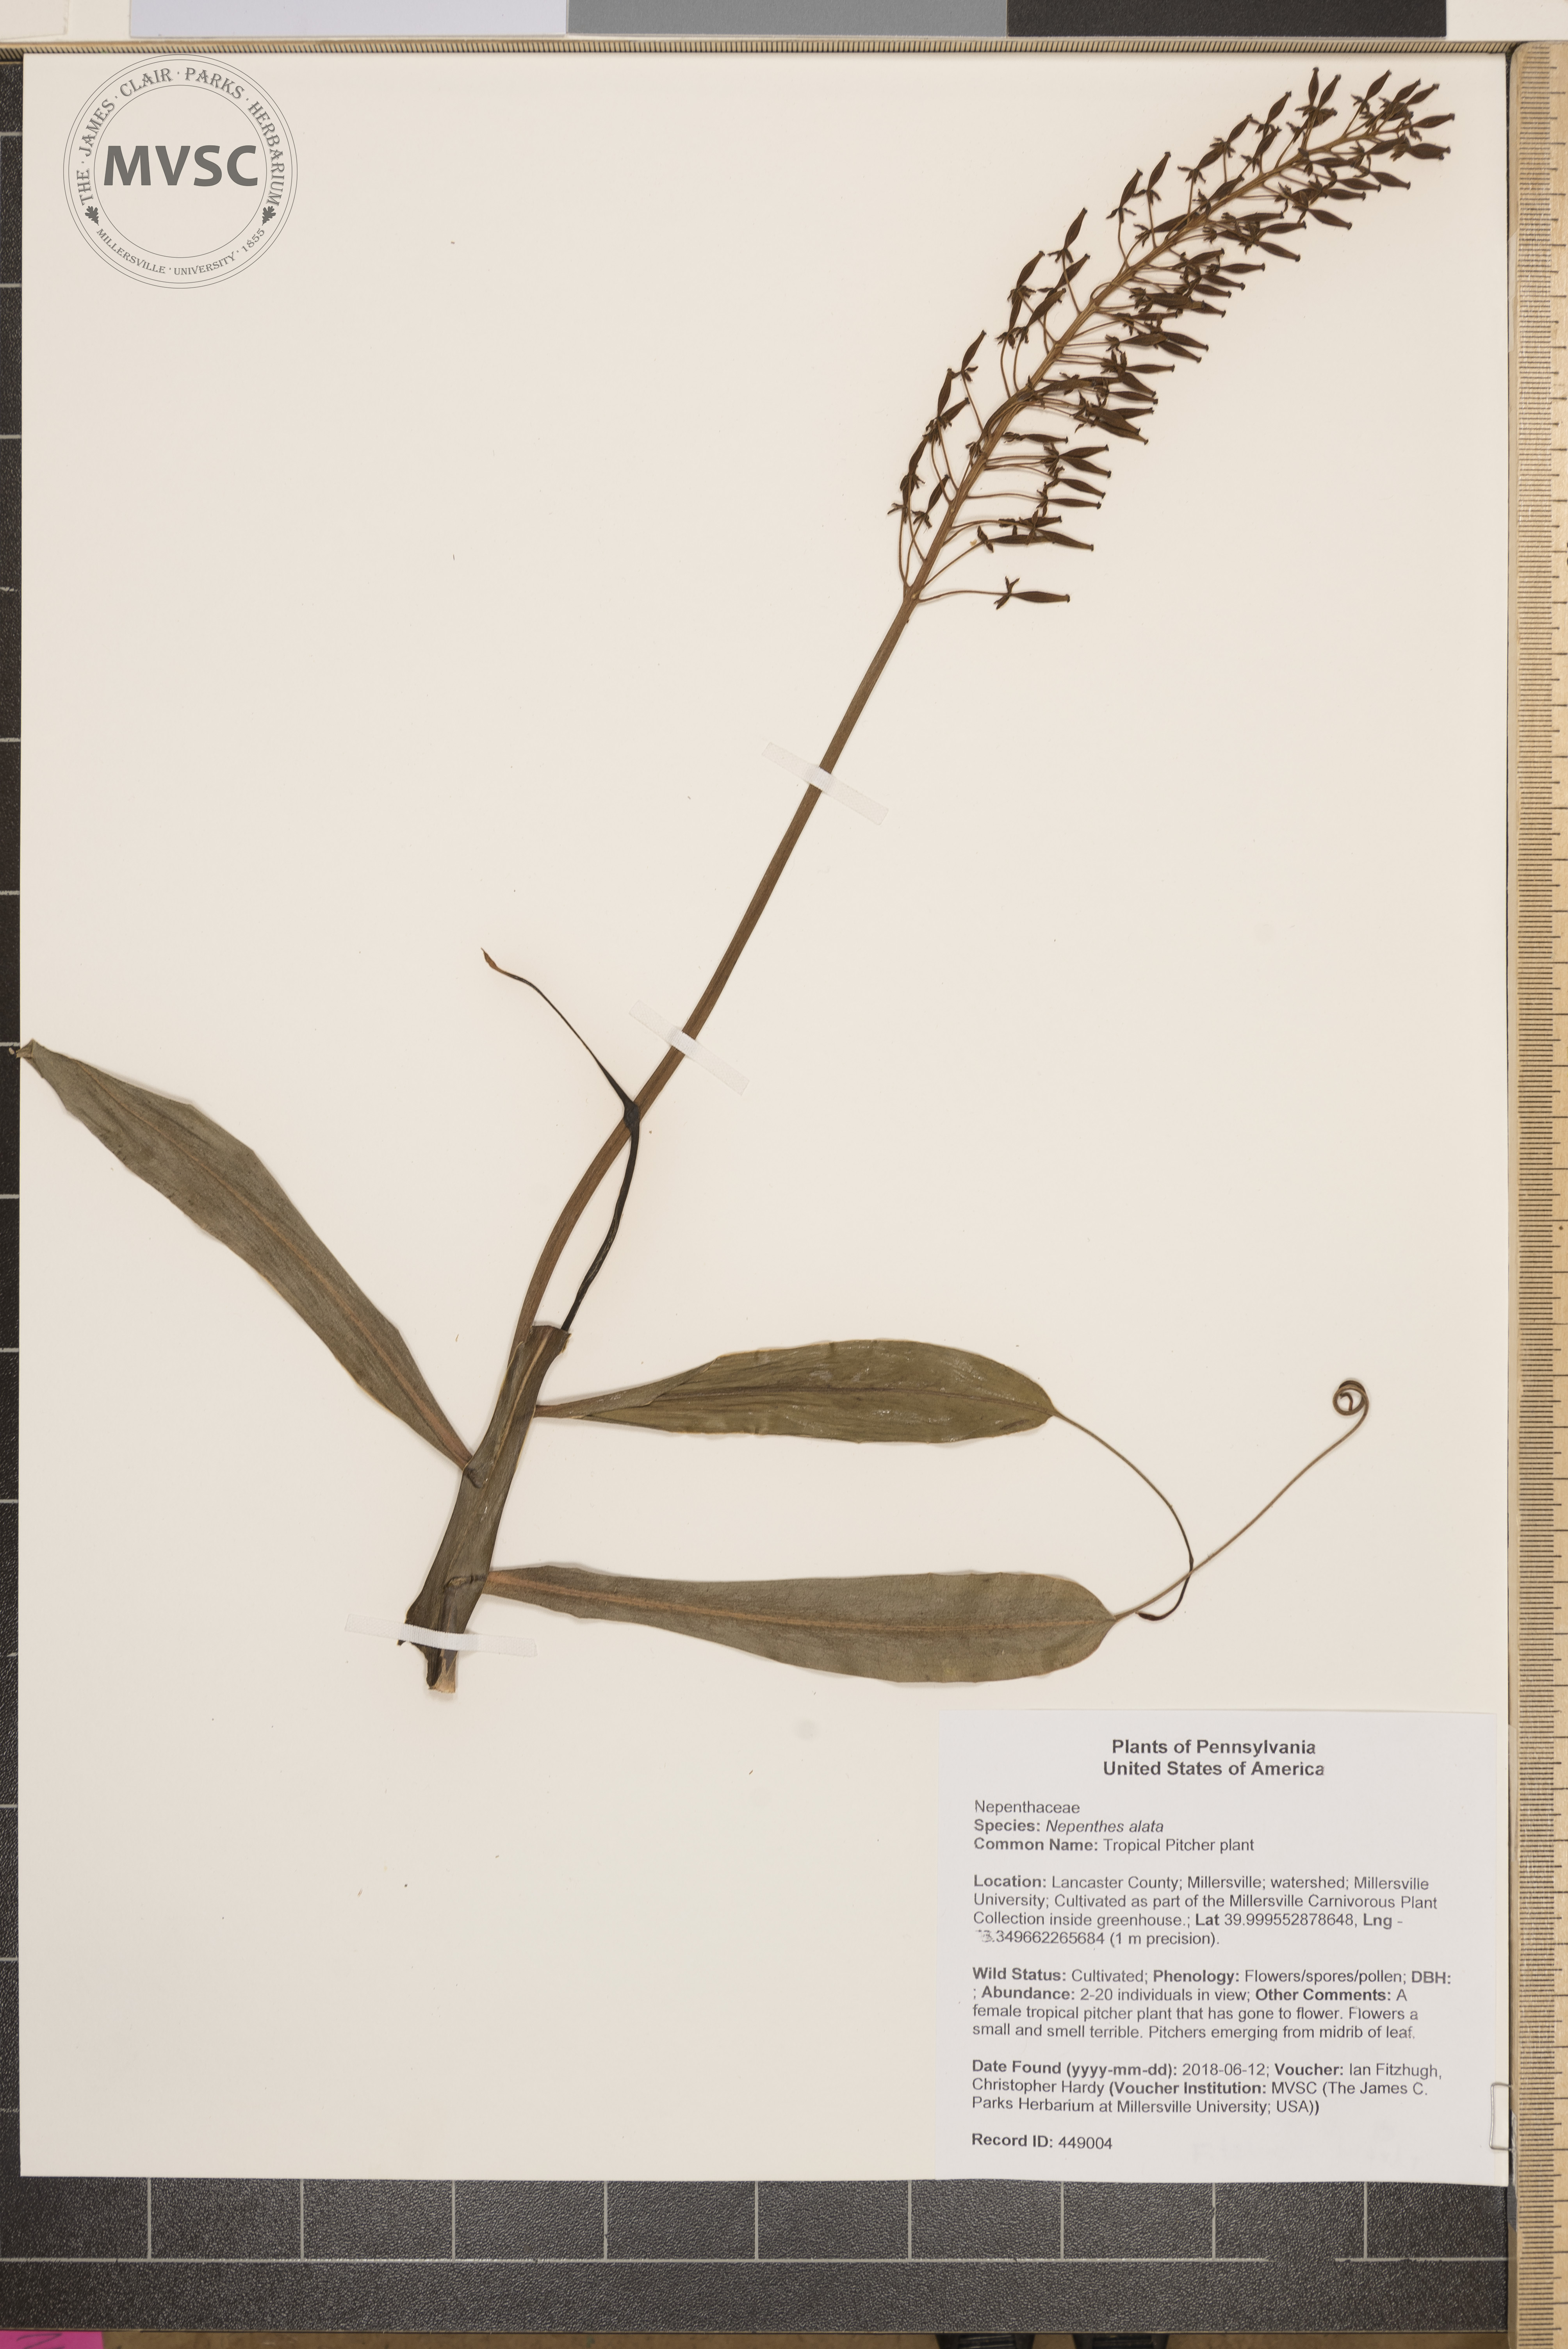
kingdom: Plantae
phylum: Tracheophyta
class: Magnoliopsida
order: Caryophyllales
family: Nepenthaceae
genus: Nepenthes
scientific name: Nepenthes alata
